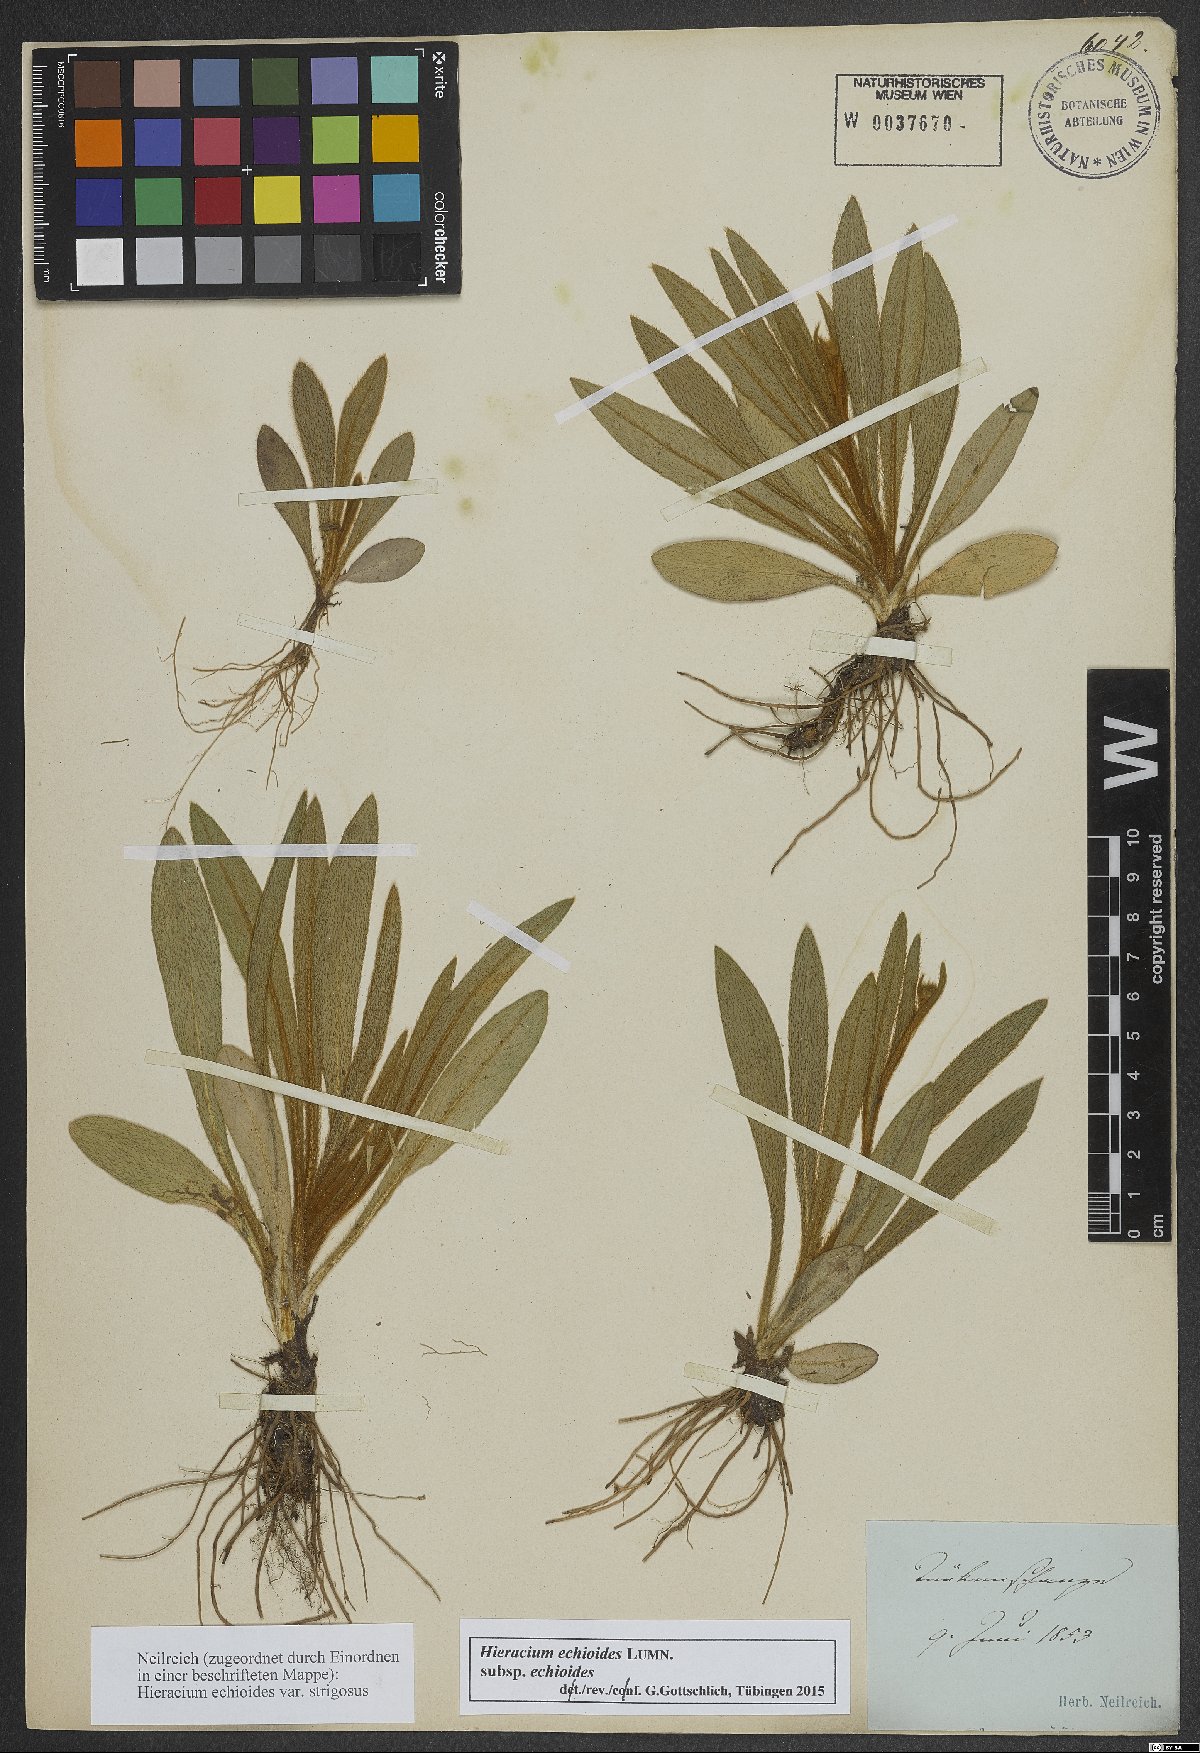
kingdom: Plantae
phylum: Tracheophyta
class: Magnoliopsida
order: Asterales
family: Asteraceae
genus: Pilosella
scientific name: Pilosella echioides
